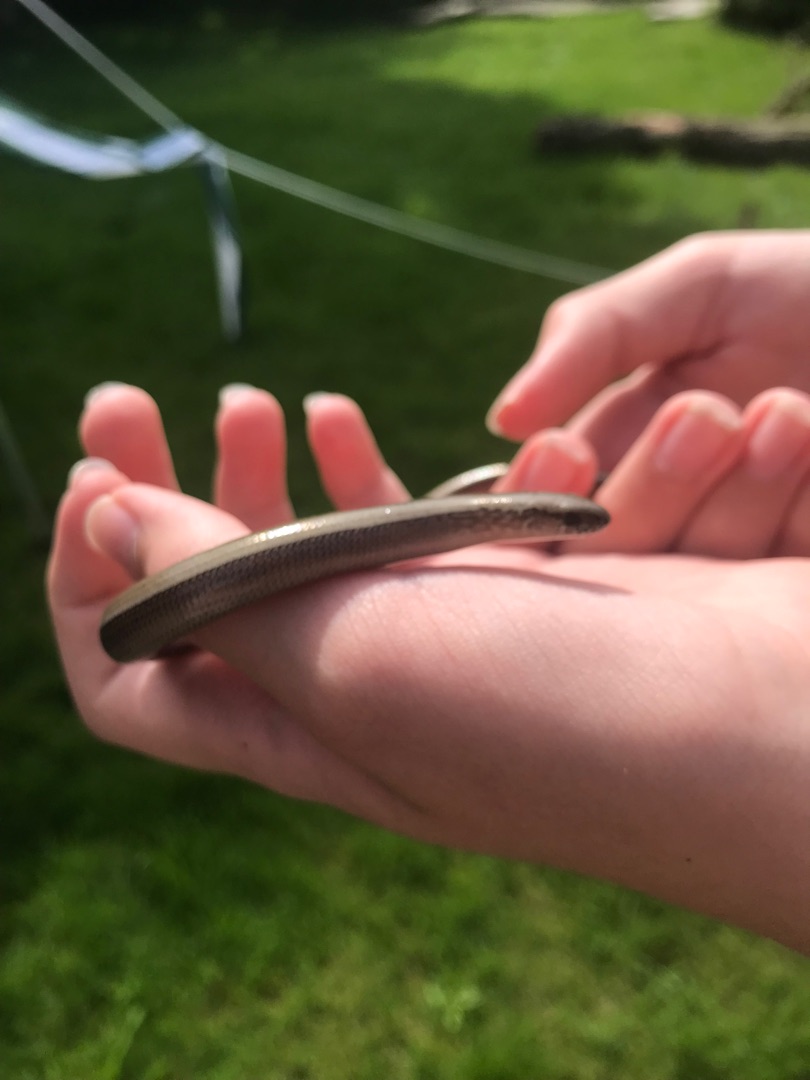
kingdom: Animalia
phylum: Chordata
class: Squamata
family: Anguidae
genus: Anguis
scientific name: Anguis fragilis
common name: Stålorm
